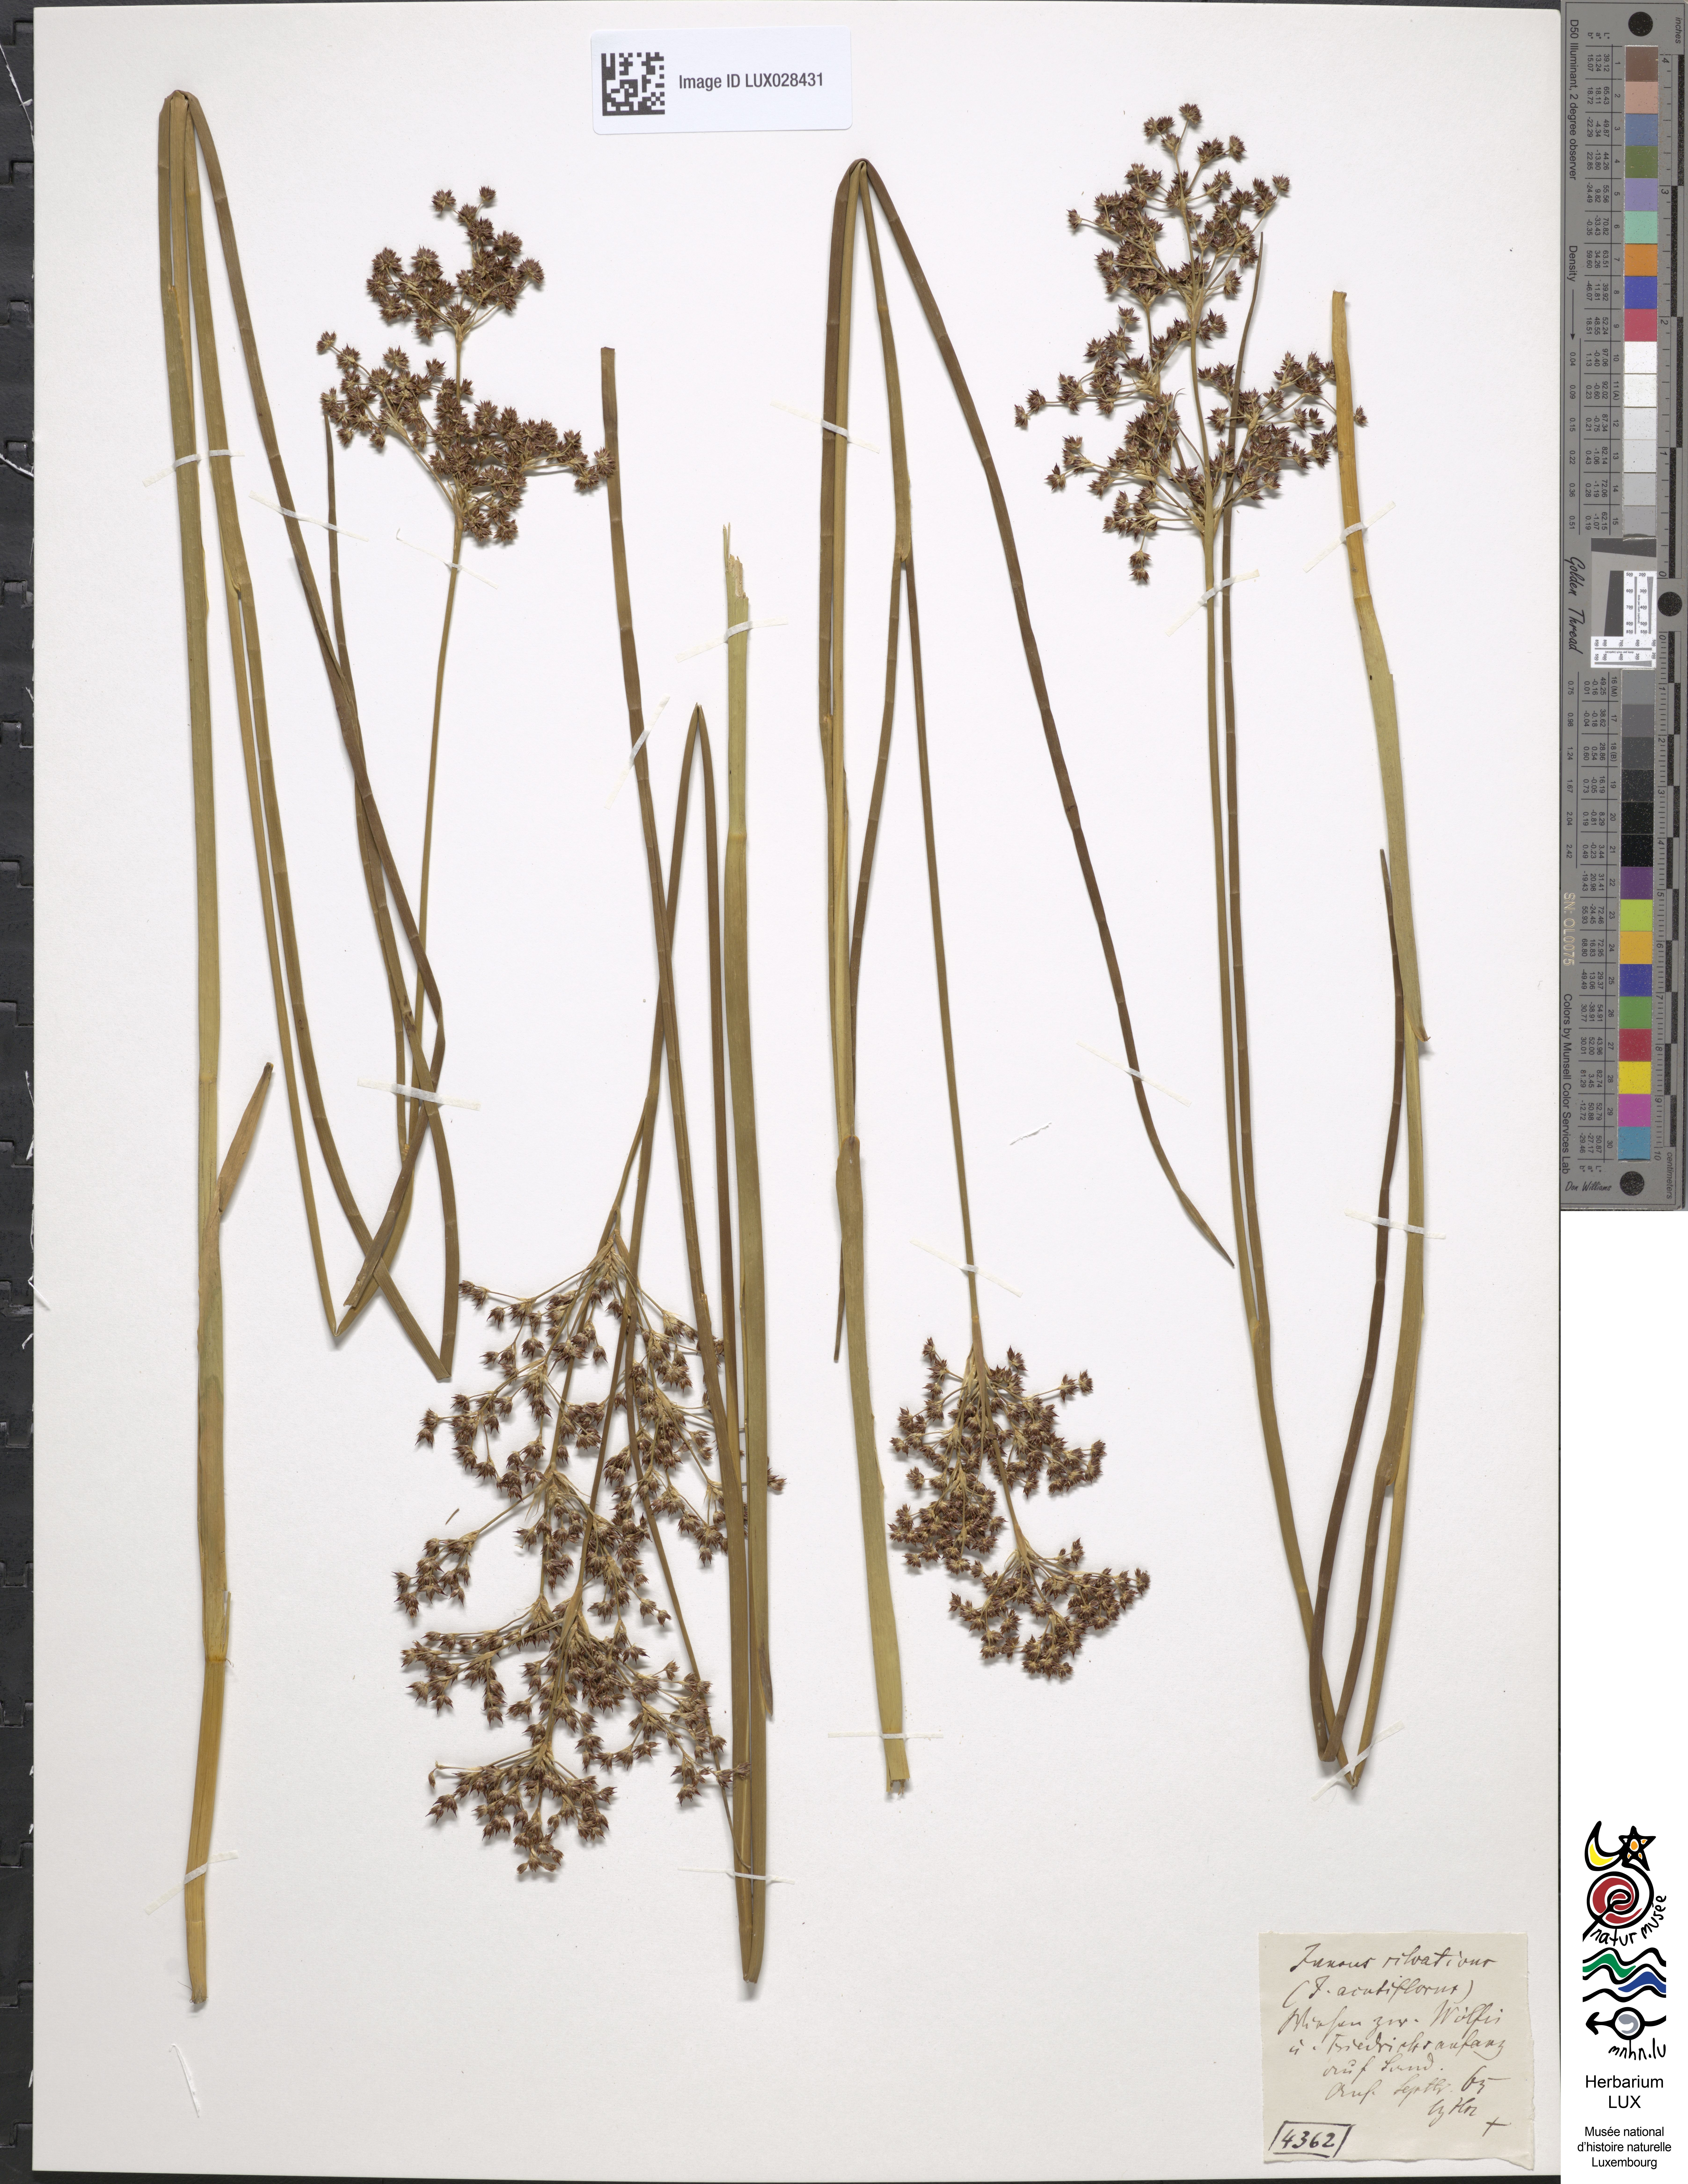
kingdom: Plantae
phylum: Tracheophyta
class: Liliopsida
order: Poales
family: Juncaceae
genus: Juncus
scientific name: Juncus acutiflorus
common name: Sharp-flowered rush
